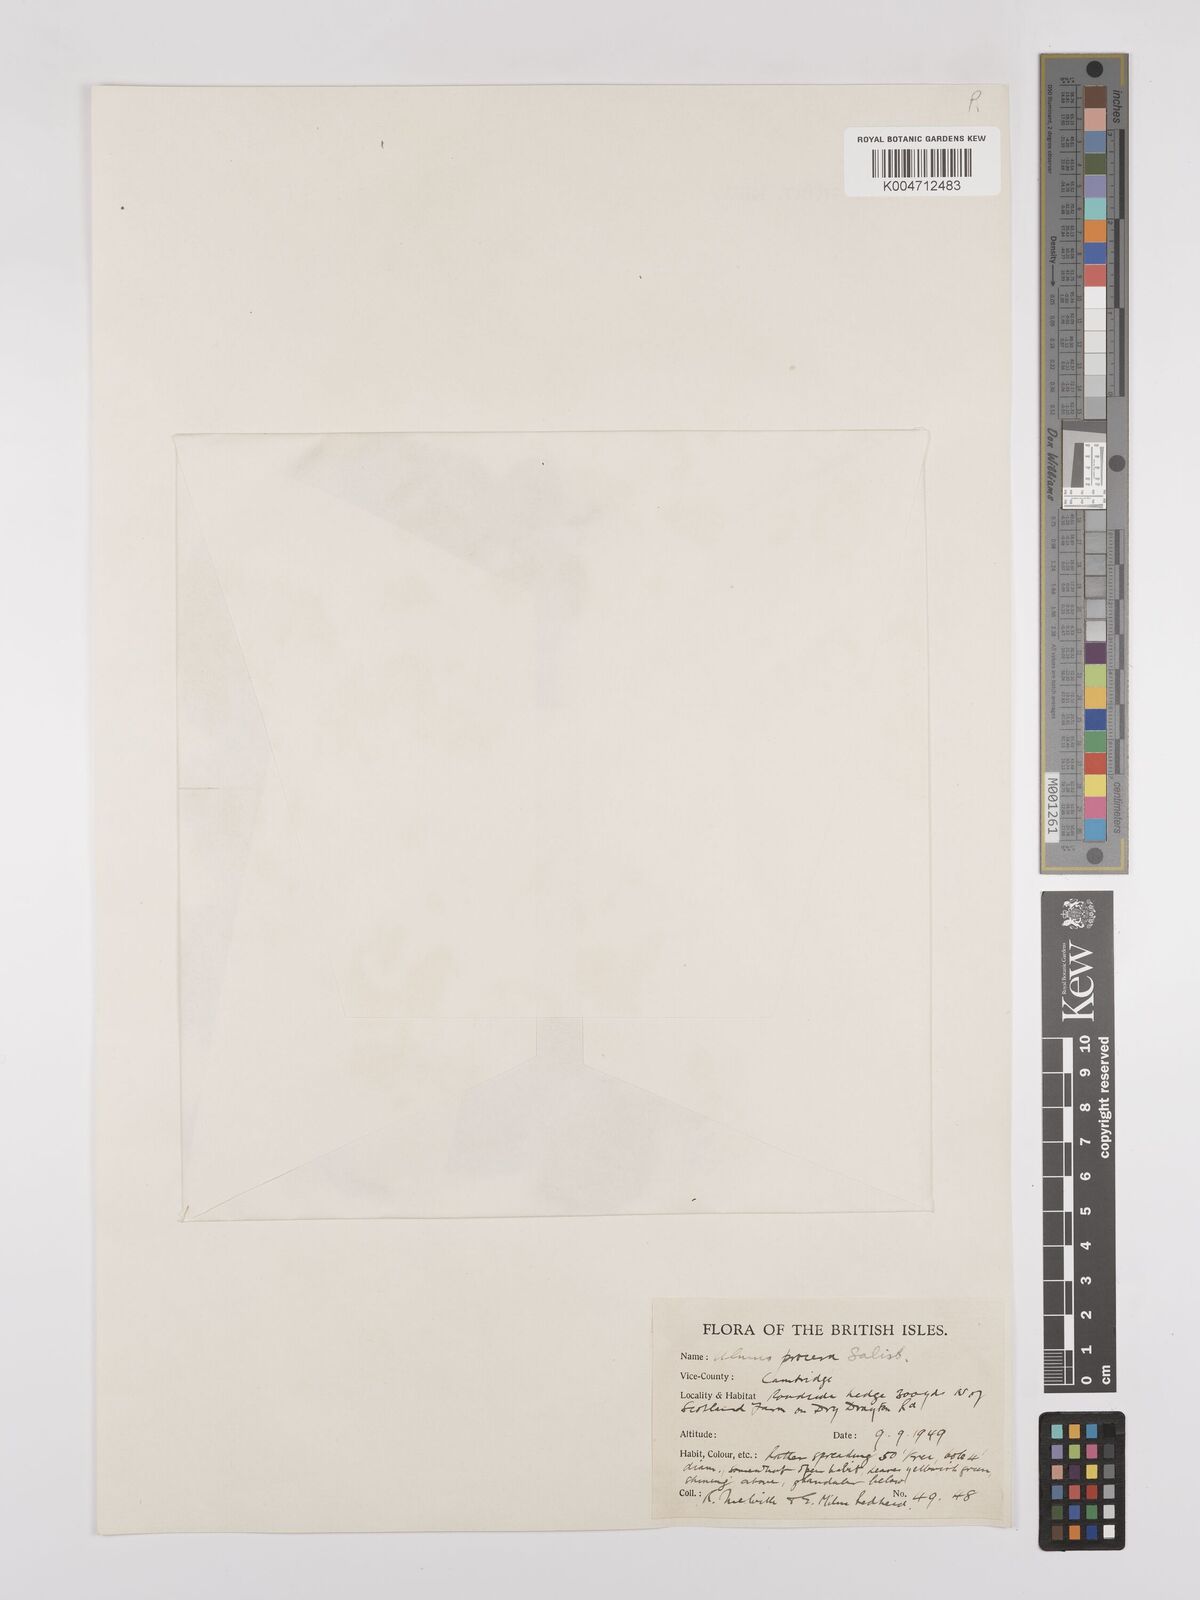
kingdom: Plantae
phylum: Tracheophyta
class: Magnoliopsida
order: Rosales
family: Ulmaceae
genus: Ulmus
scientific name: Ulmus minor
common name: Small-leaved elm
